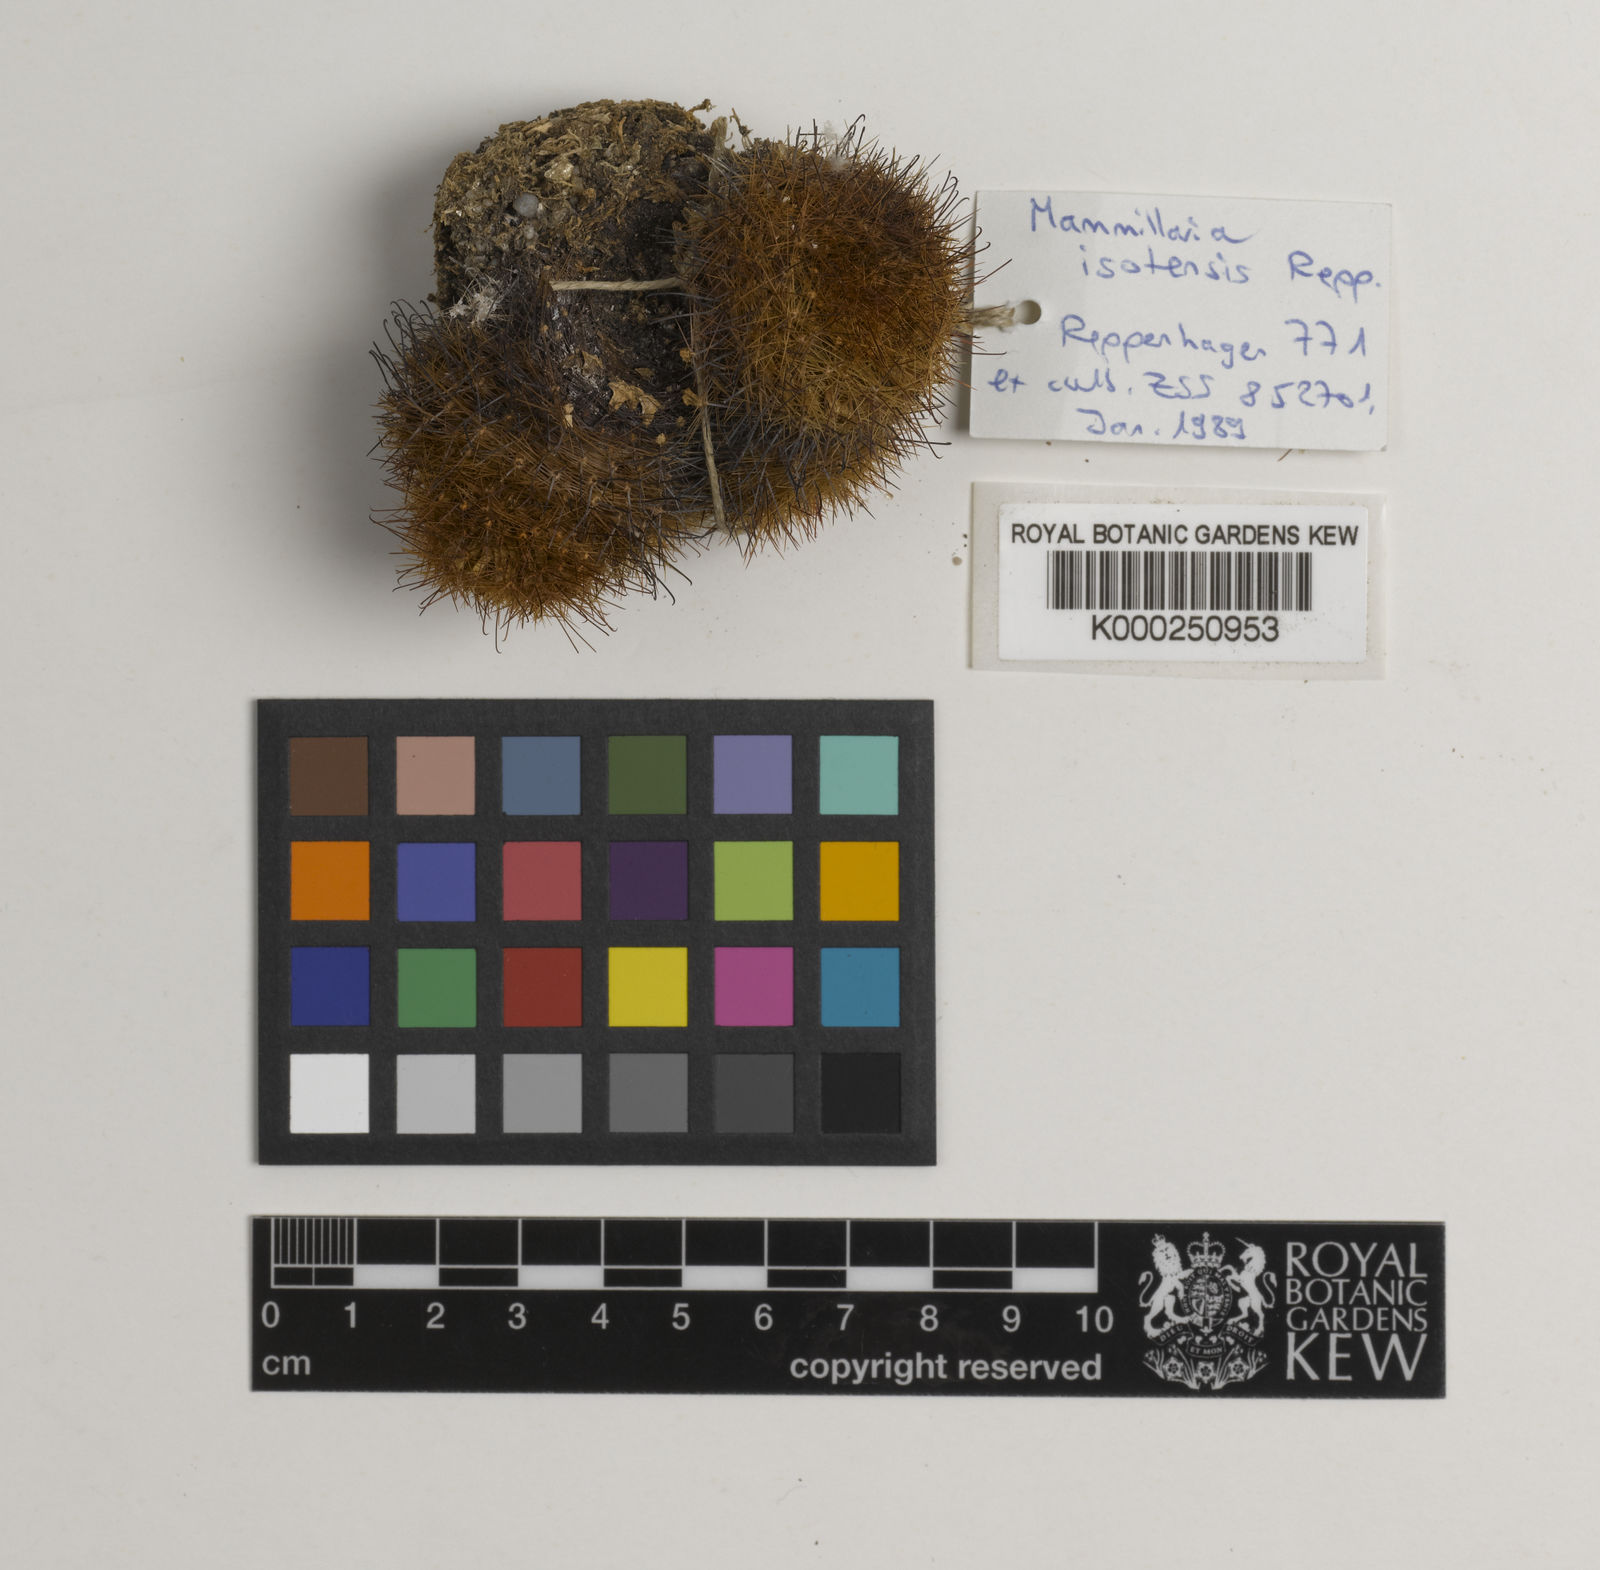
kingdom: Plantae
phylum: Tracheophyta
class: Magnoliopsida
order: Caryophyllales
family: Cactaceae
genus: Mammillaria
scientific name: Mammillaria backebergiana
